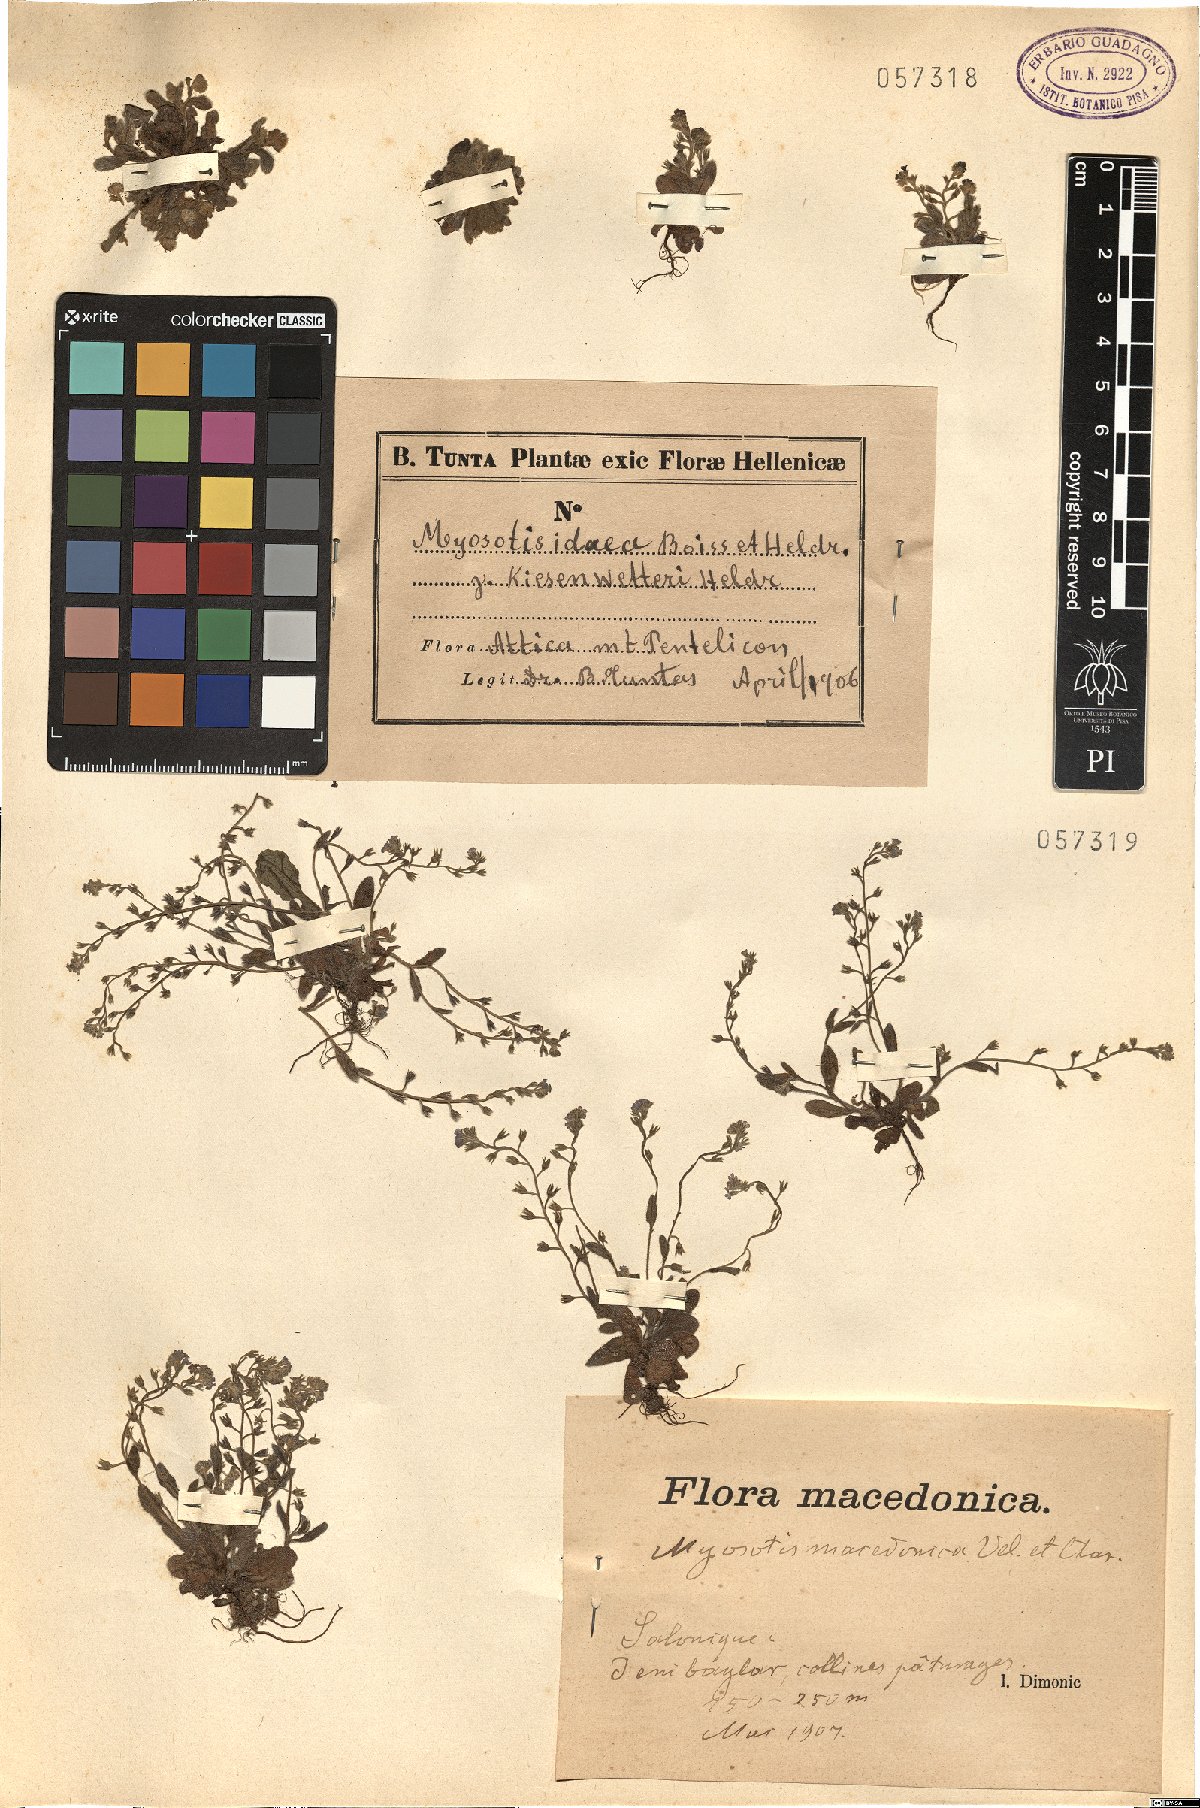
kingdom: Plantae
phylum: Tracheophyta
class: Magnoliopsida
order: Boraginales
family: Boraginaceae
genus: Myosotis
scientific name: Myosotis incrassata
